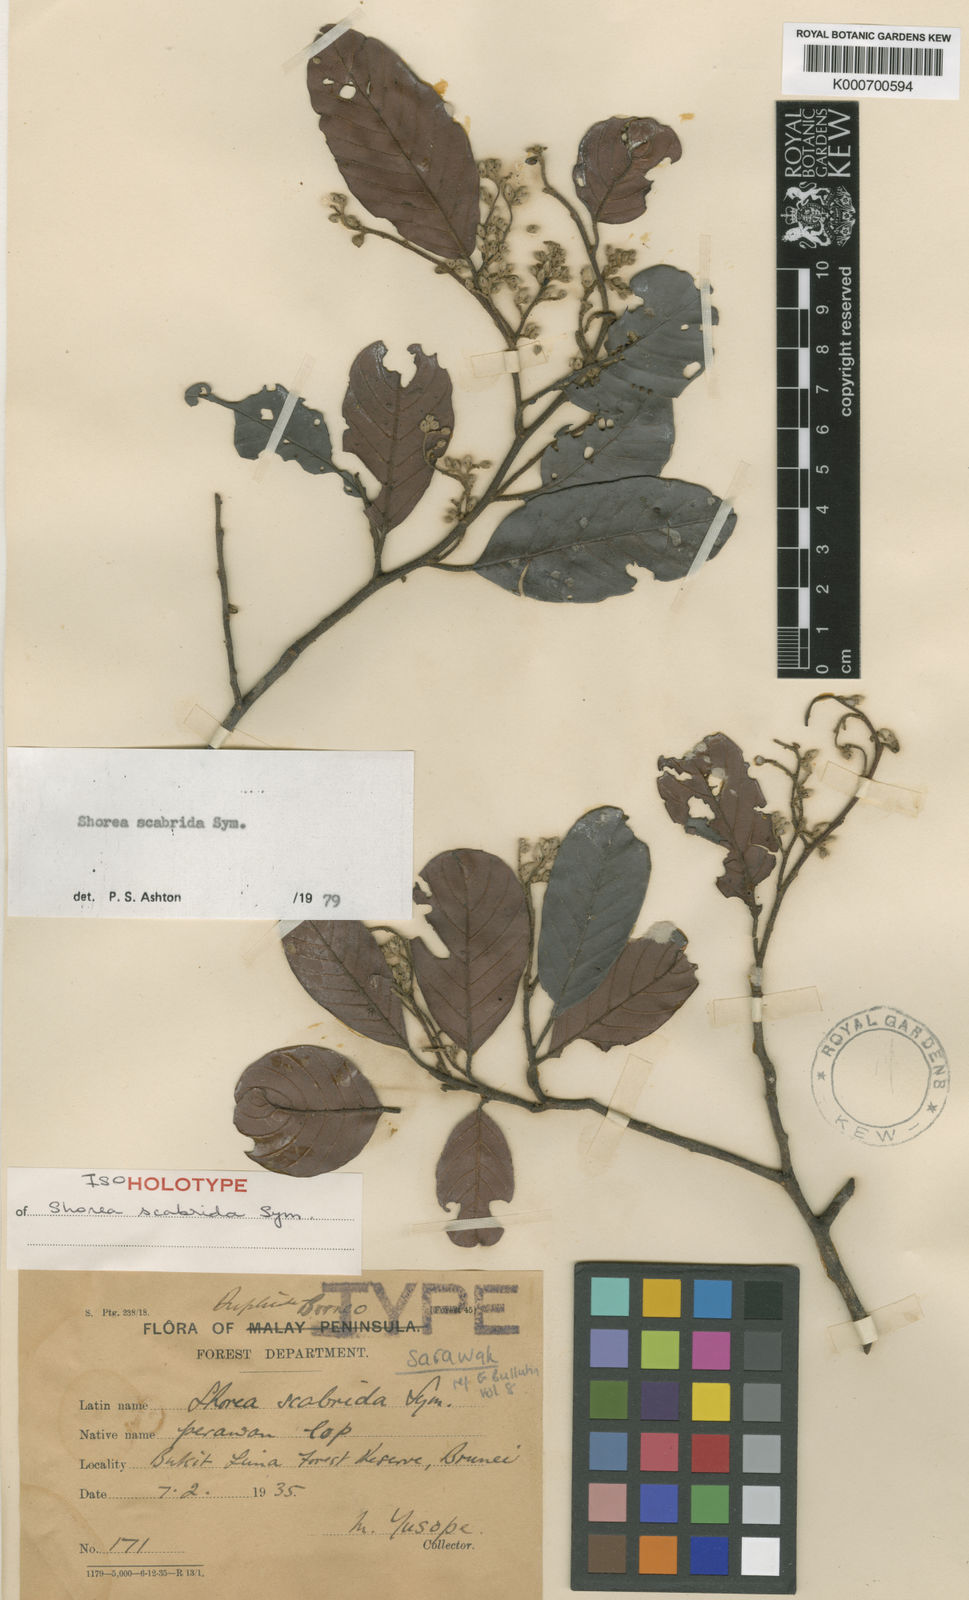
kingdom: Plantae
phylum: Tracheophyta
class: Magnoliopsida
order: Malvales
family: Dipterocarpaceae
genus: Shorea
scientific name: Shorea scabrida
